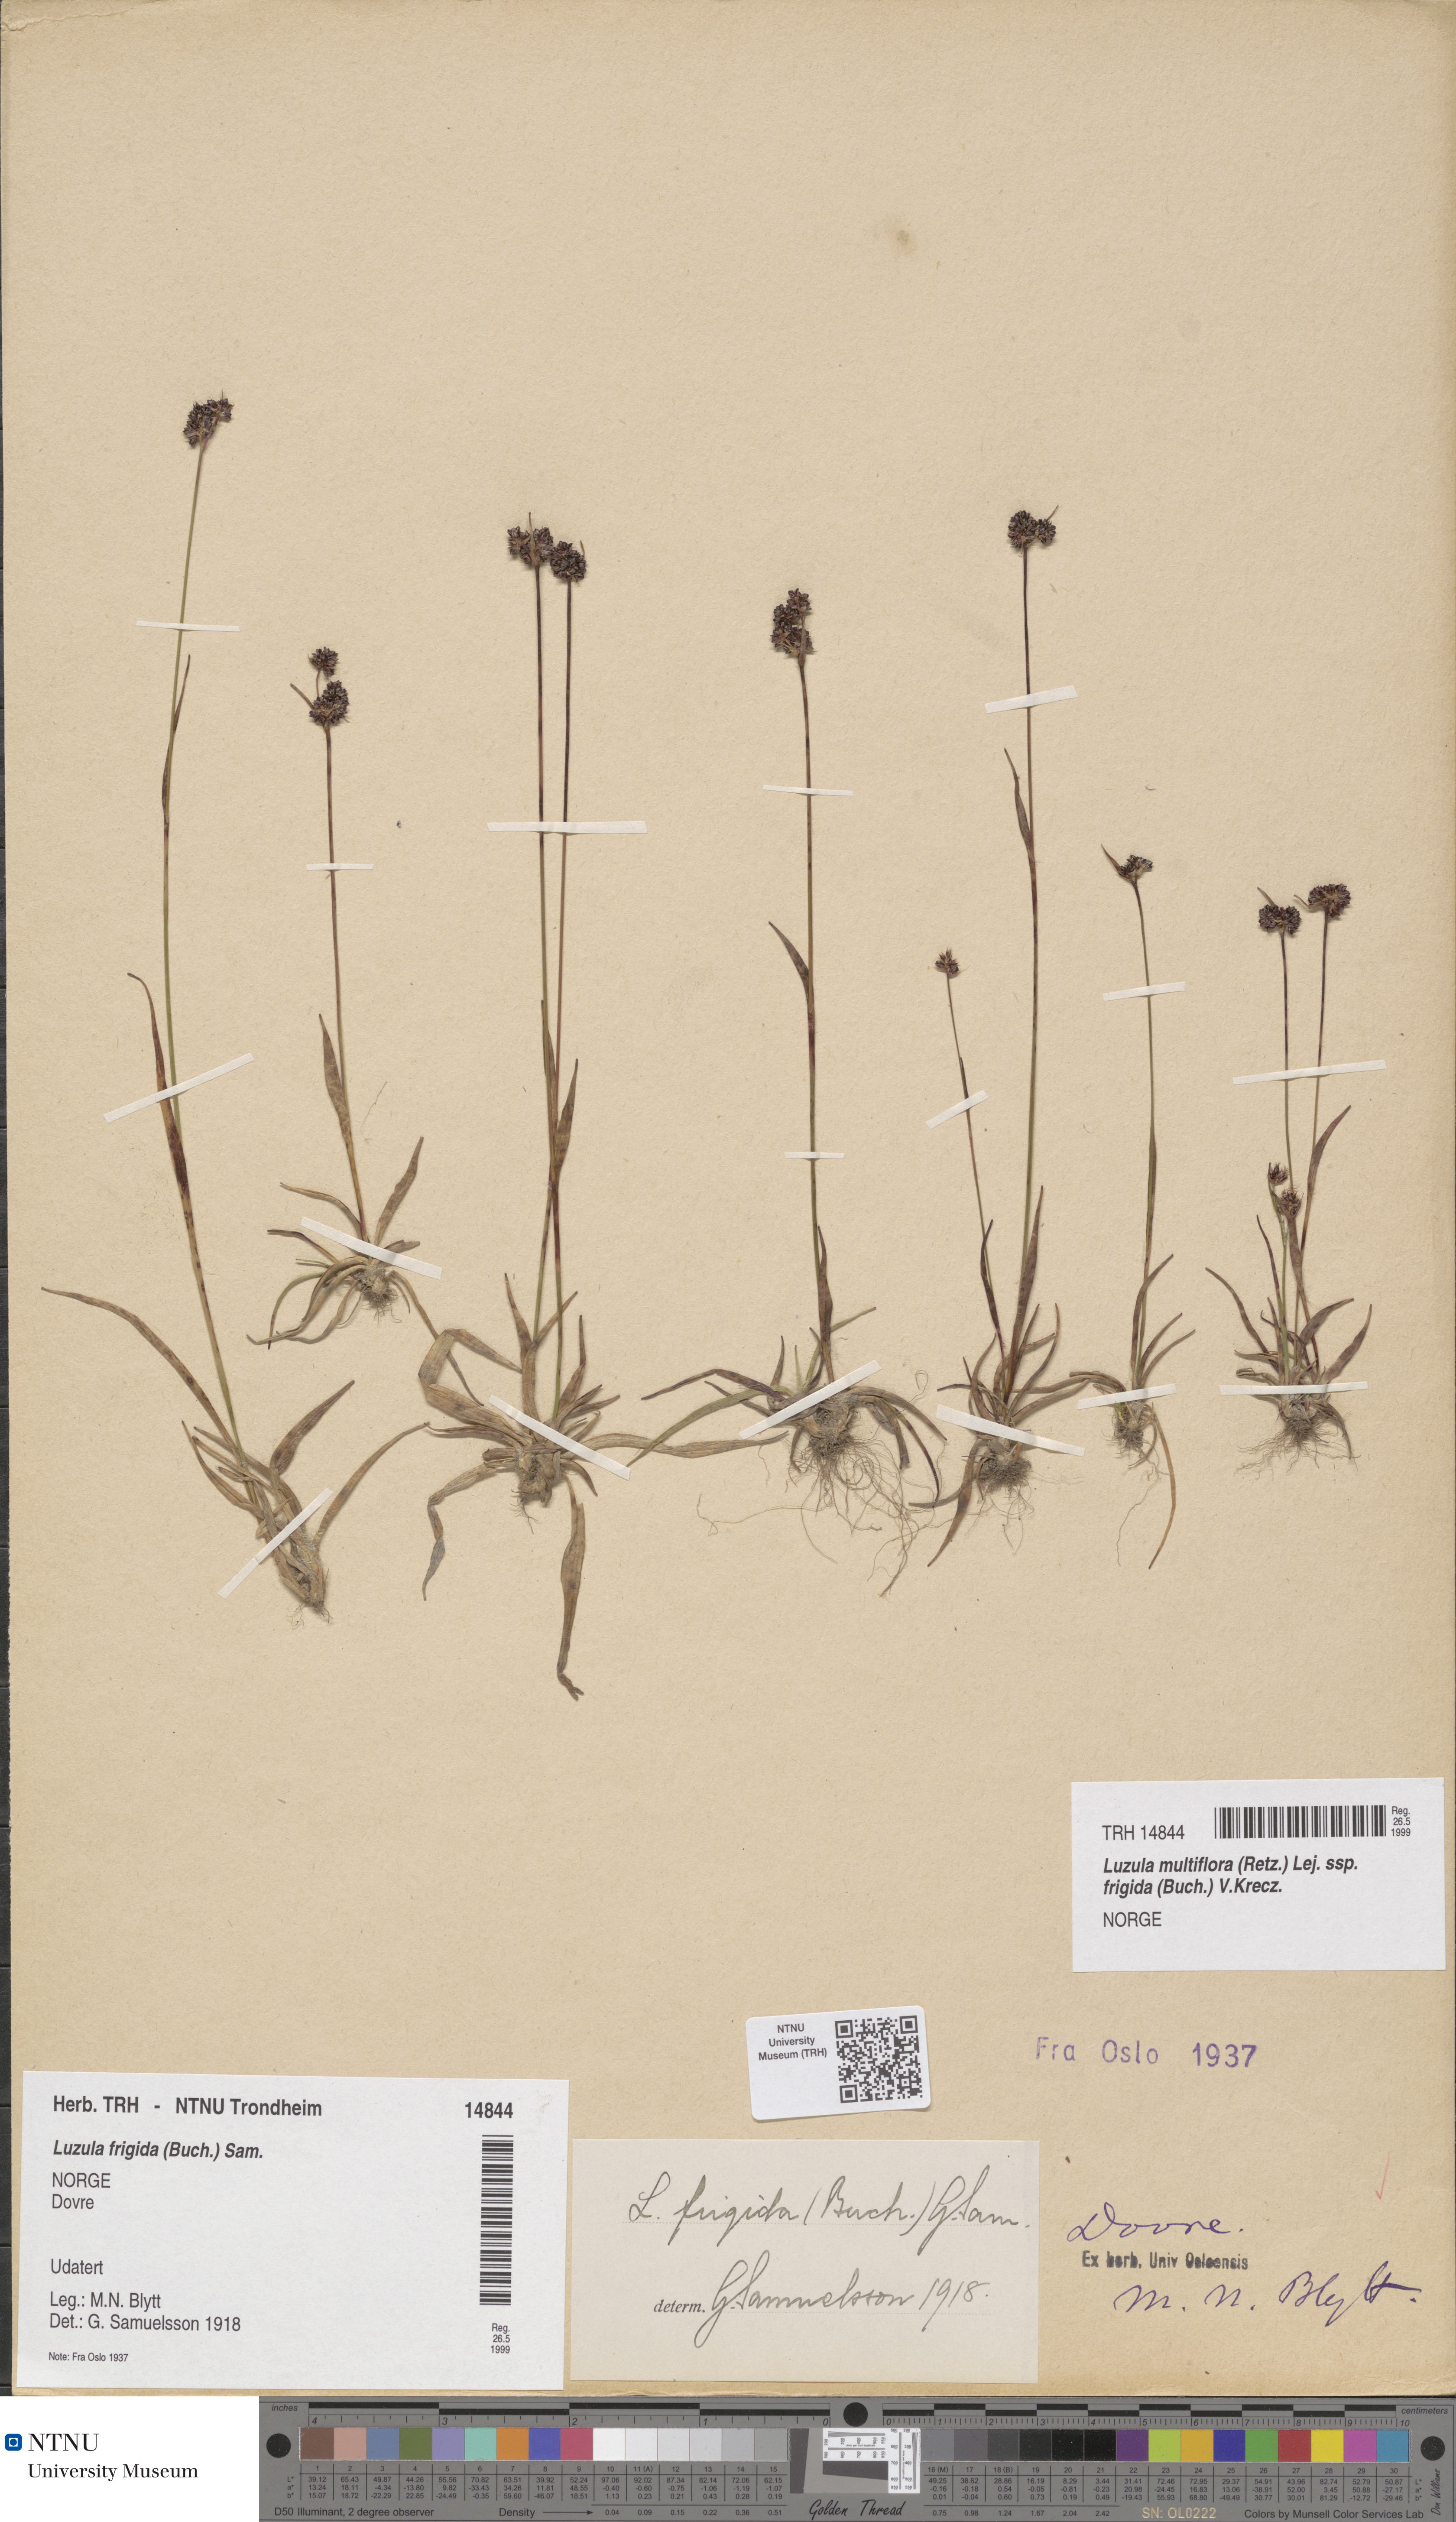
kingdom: Plantae
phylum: Tracheophyta
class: Liliopsida
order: Poales
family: Juncaceae
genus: Luzula
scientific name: Luzula multiflora
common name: Heath wood-rush
